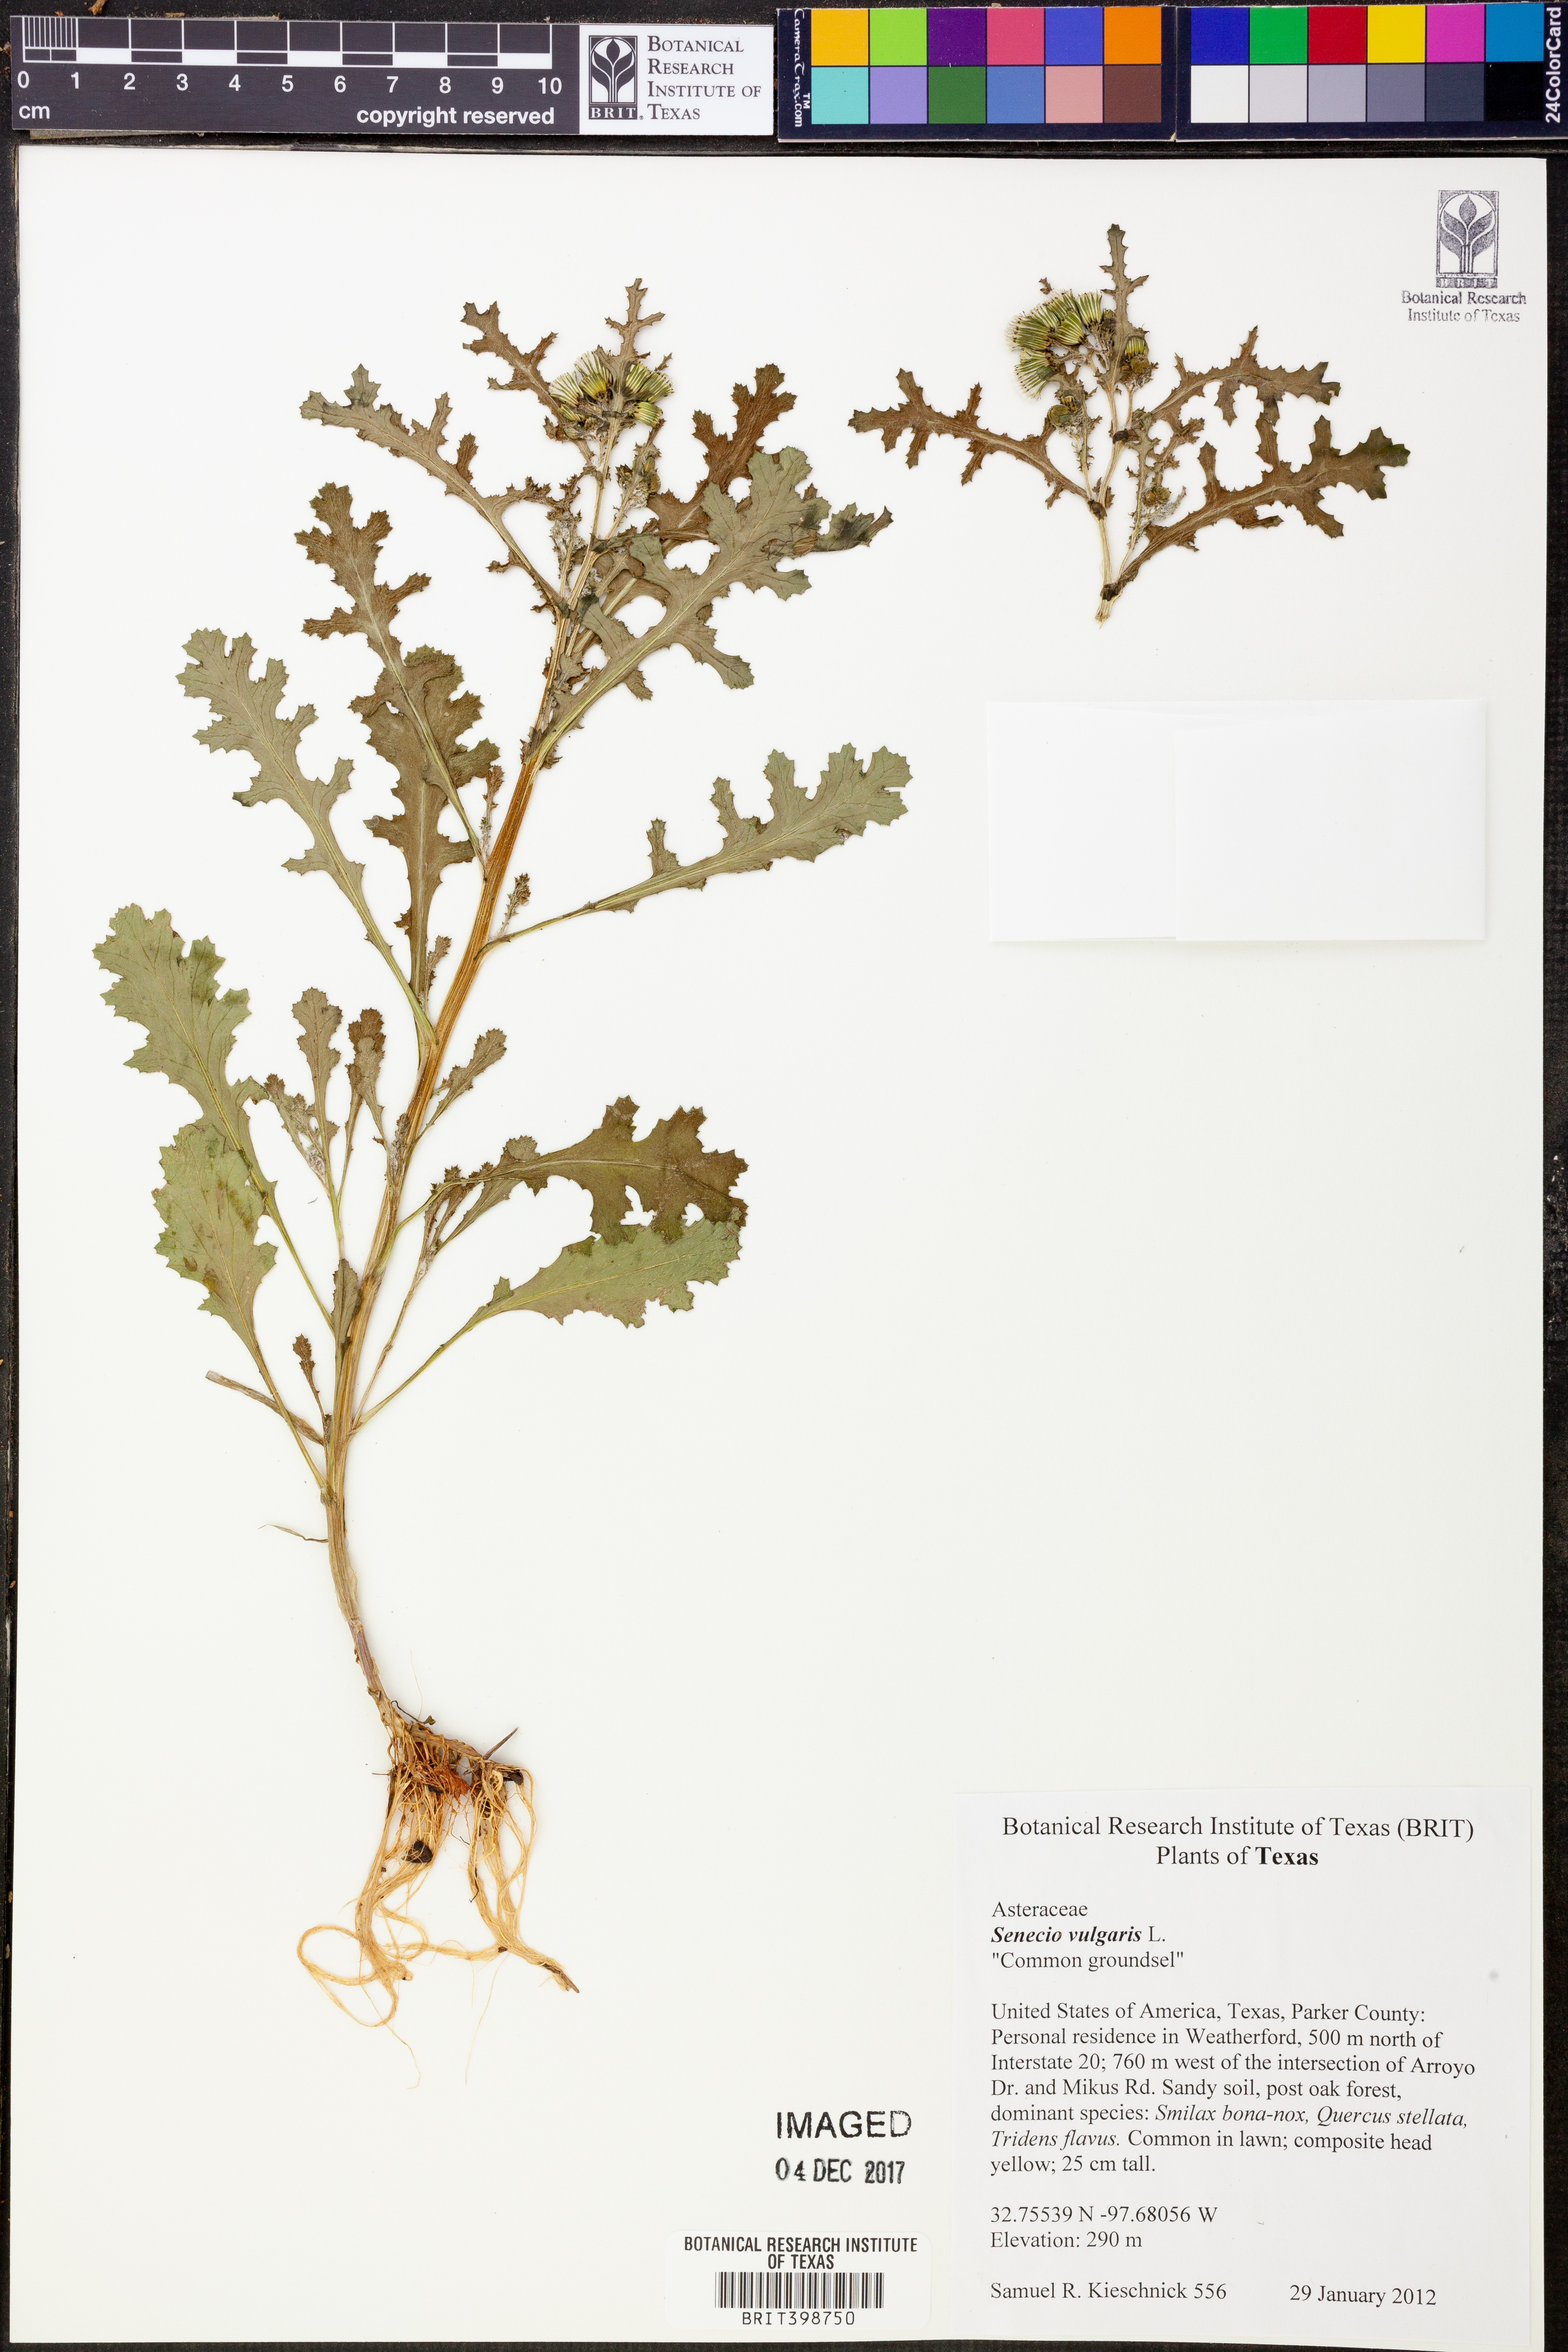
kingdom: Plantae
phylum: Tracheophyta
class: Magnoliopsida
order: Asterales
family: Asteraceae
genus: Senecio
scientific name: Senecio vulgaris
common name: Old-man-in-the-spring
